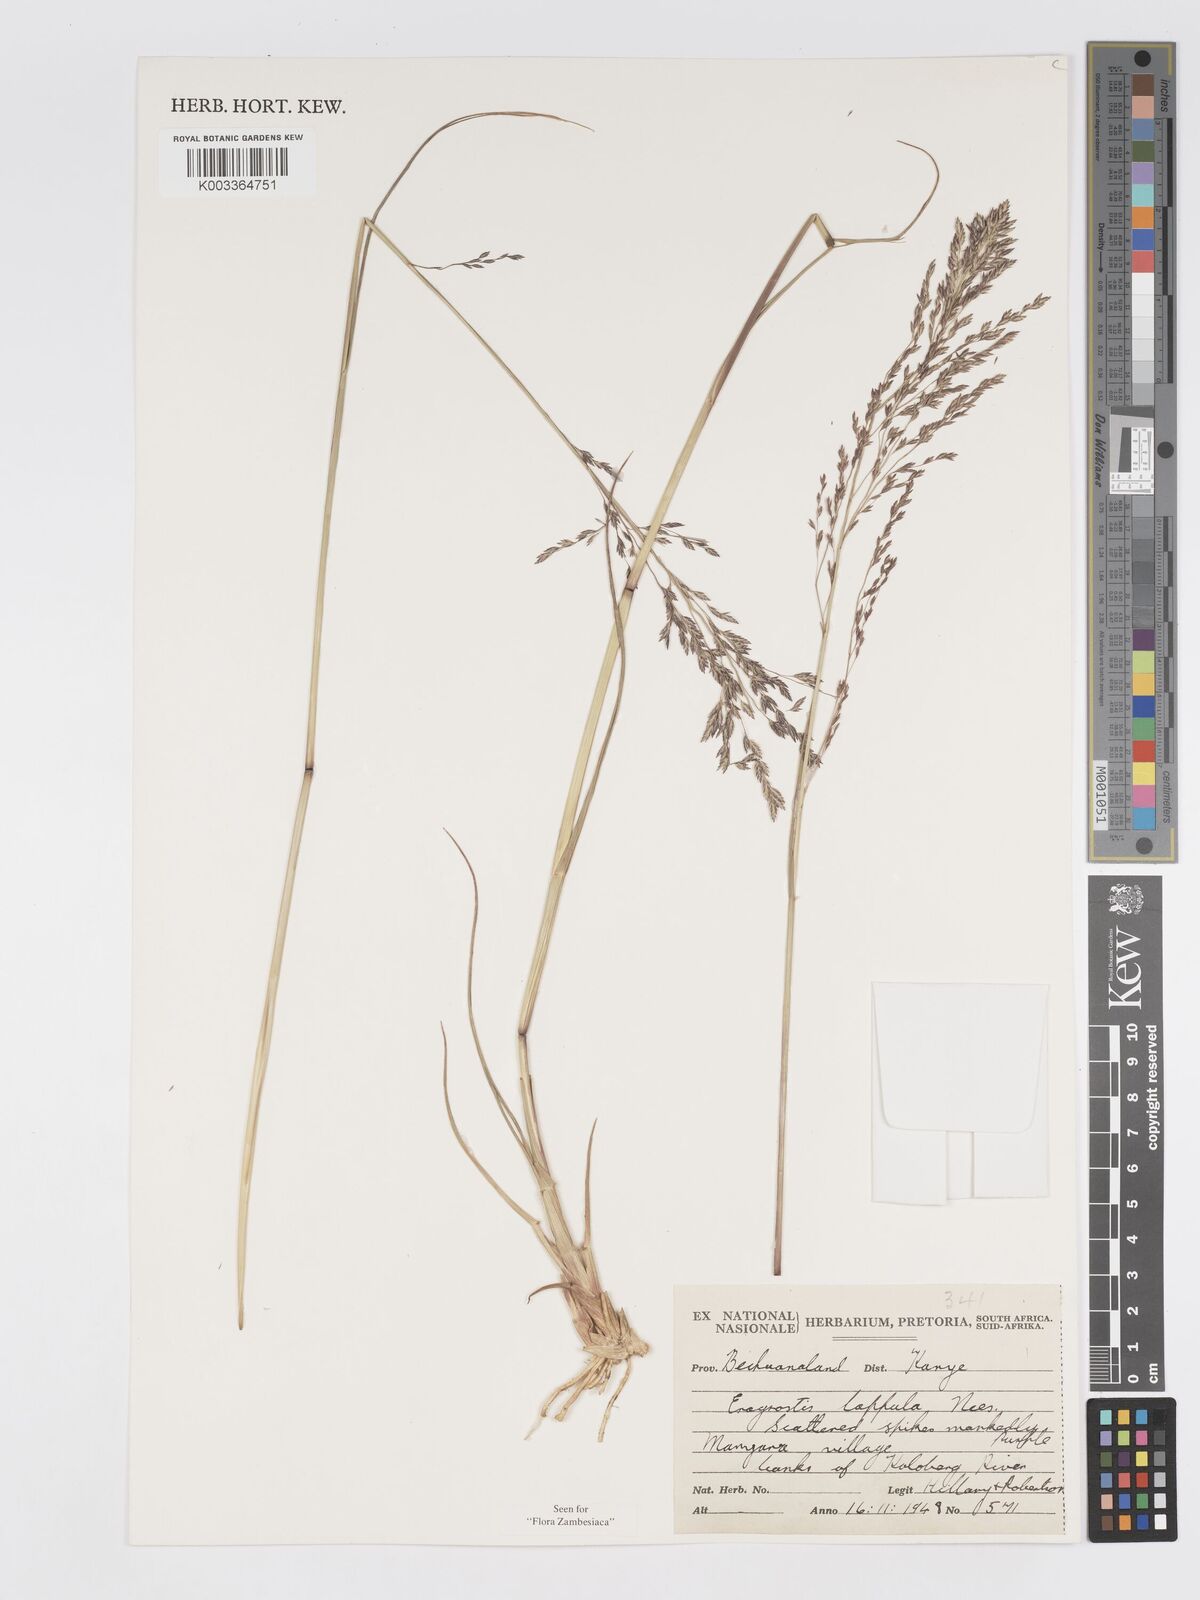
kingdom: Plantae
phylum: Tracheophyta
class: Liliopsida
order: Poales
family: Poaceae
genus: Eragrostis
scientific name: Eragrostis lappula
